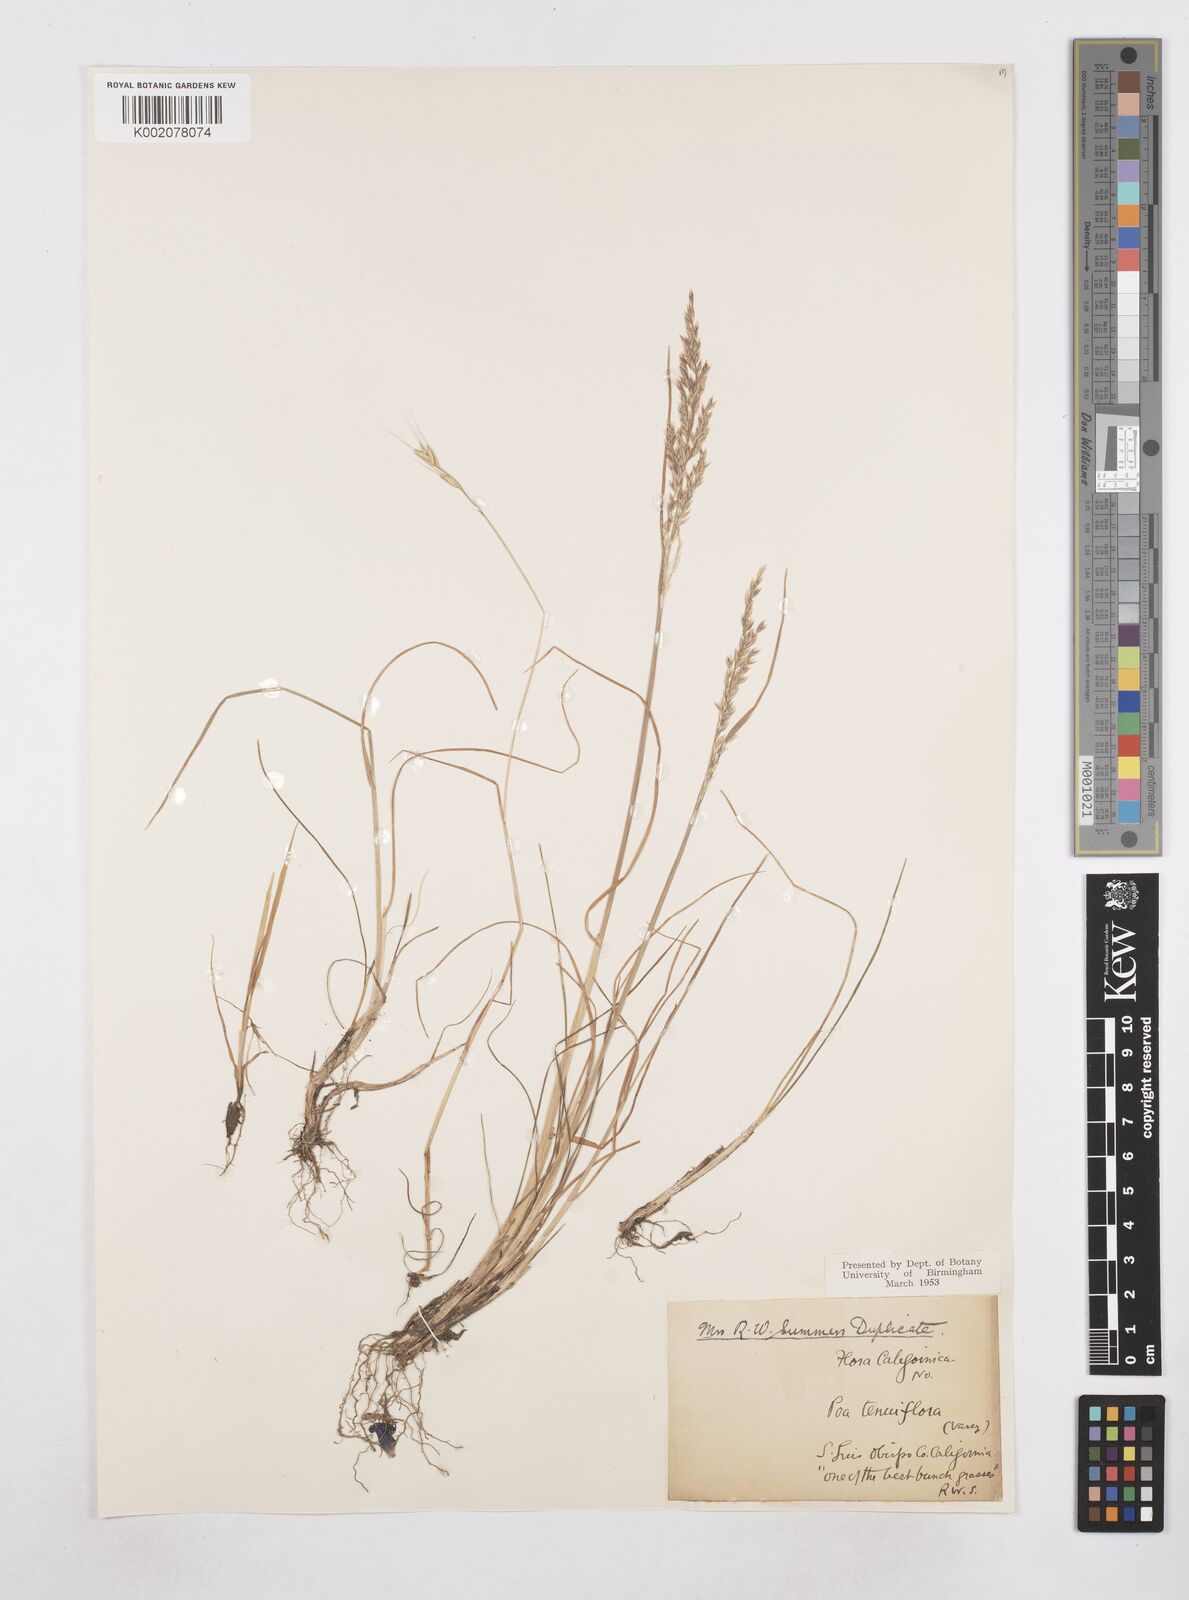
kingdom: Plantae
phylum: Tracheophyta
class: Liliopsida
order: Poales
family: Poaceae
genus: Poa
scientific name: Poa
